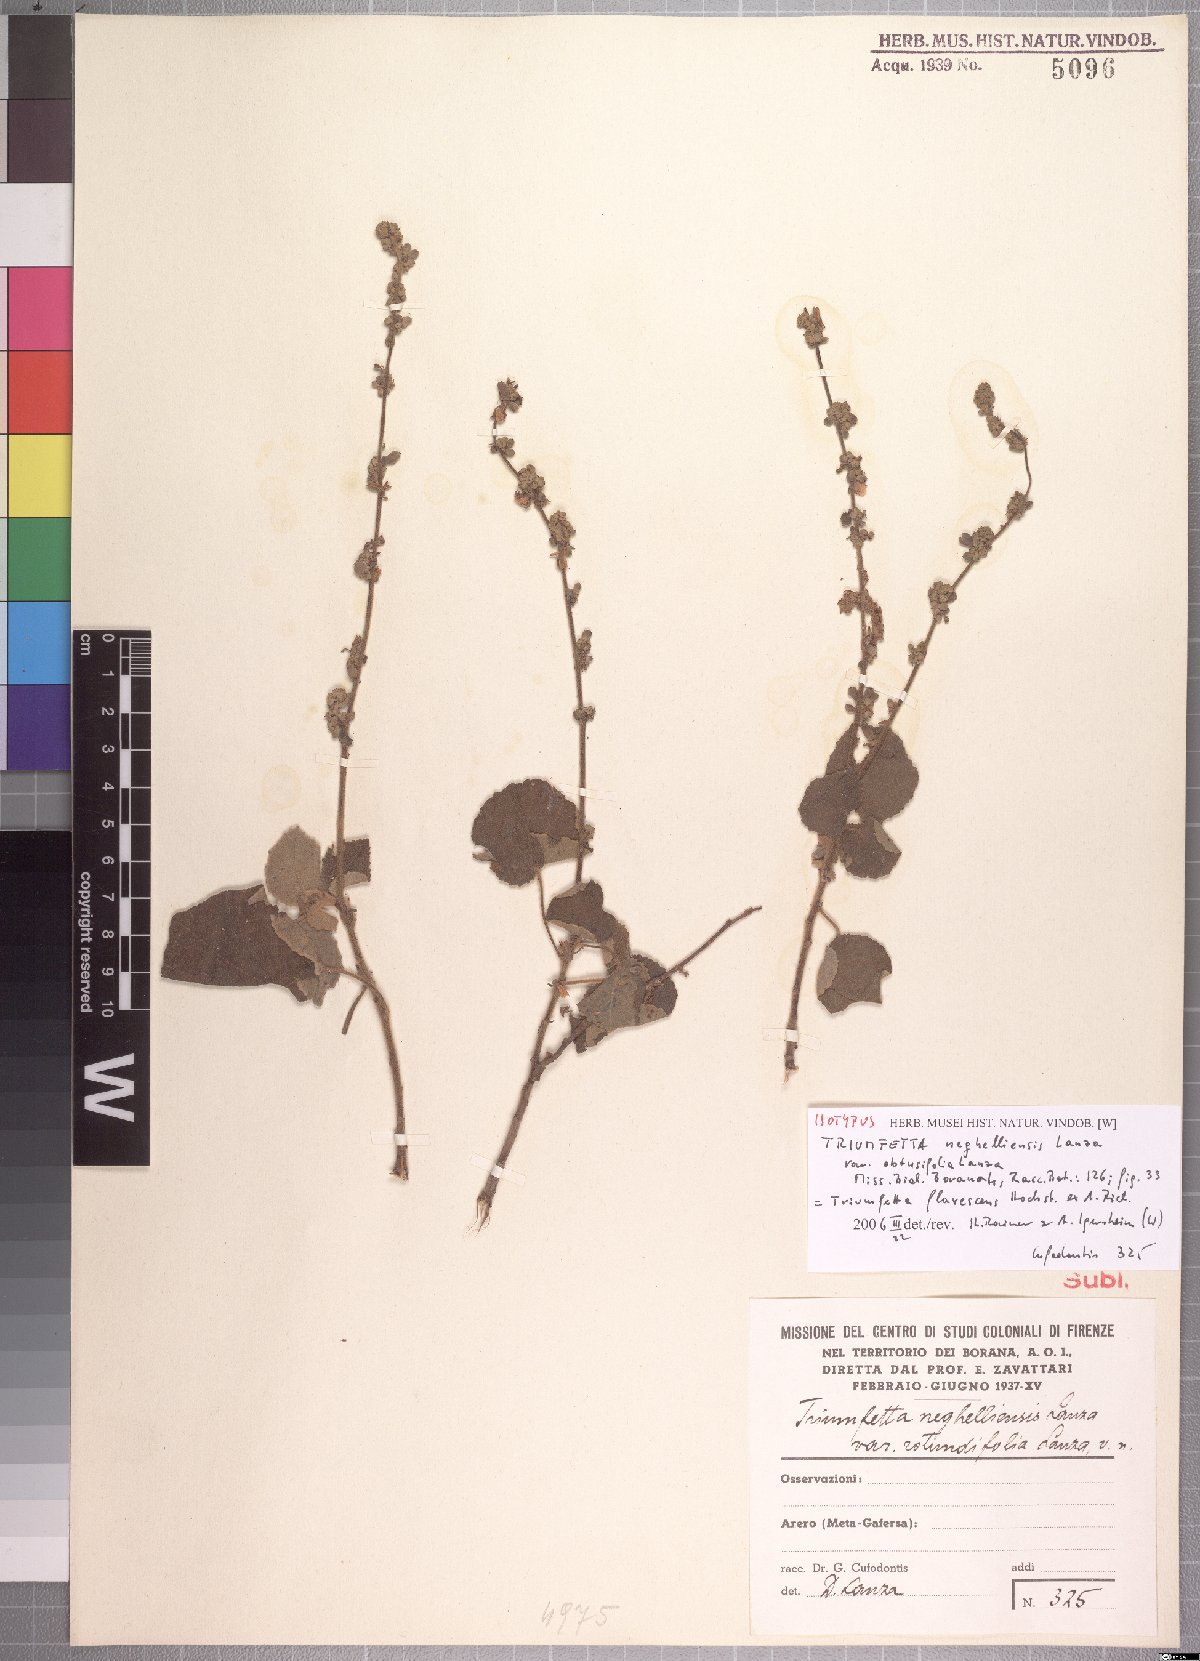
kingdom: Plantae
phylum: Tracheophyta
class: Magnoliopsida
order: Malvales
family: Malvaceae
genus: Triumfetta
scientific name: Triumfetta flavescens
